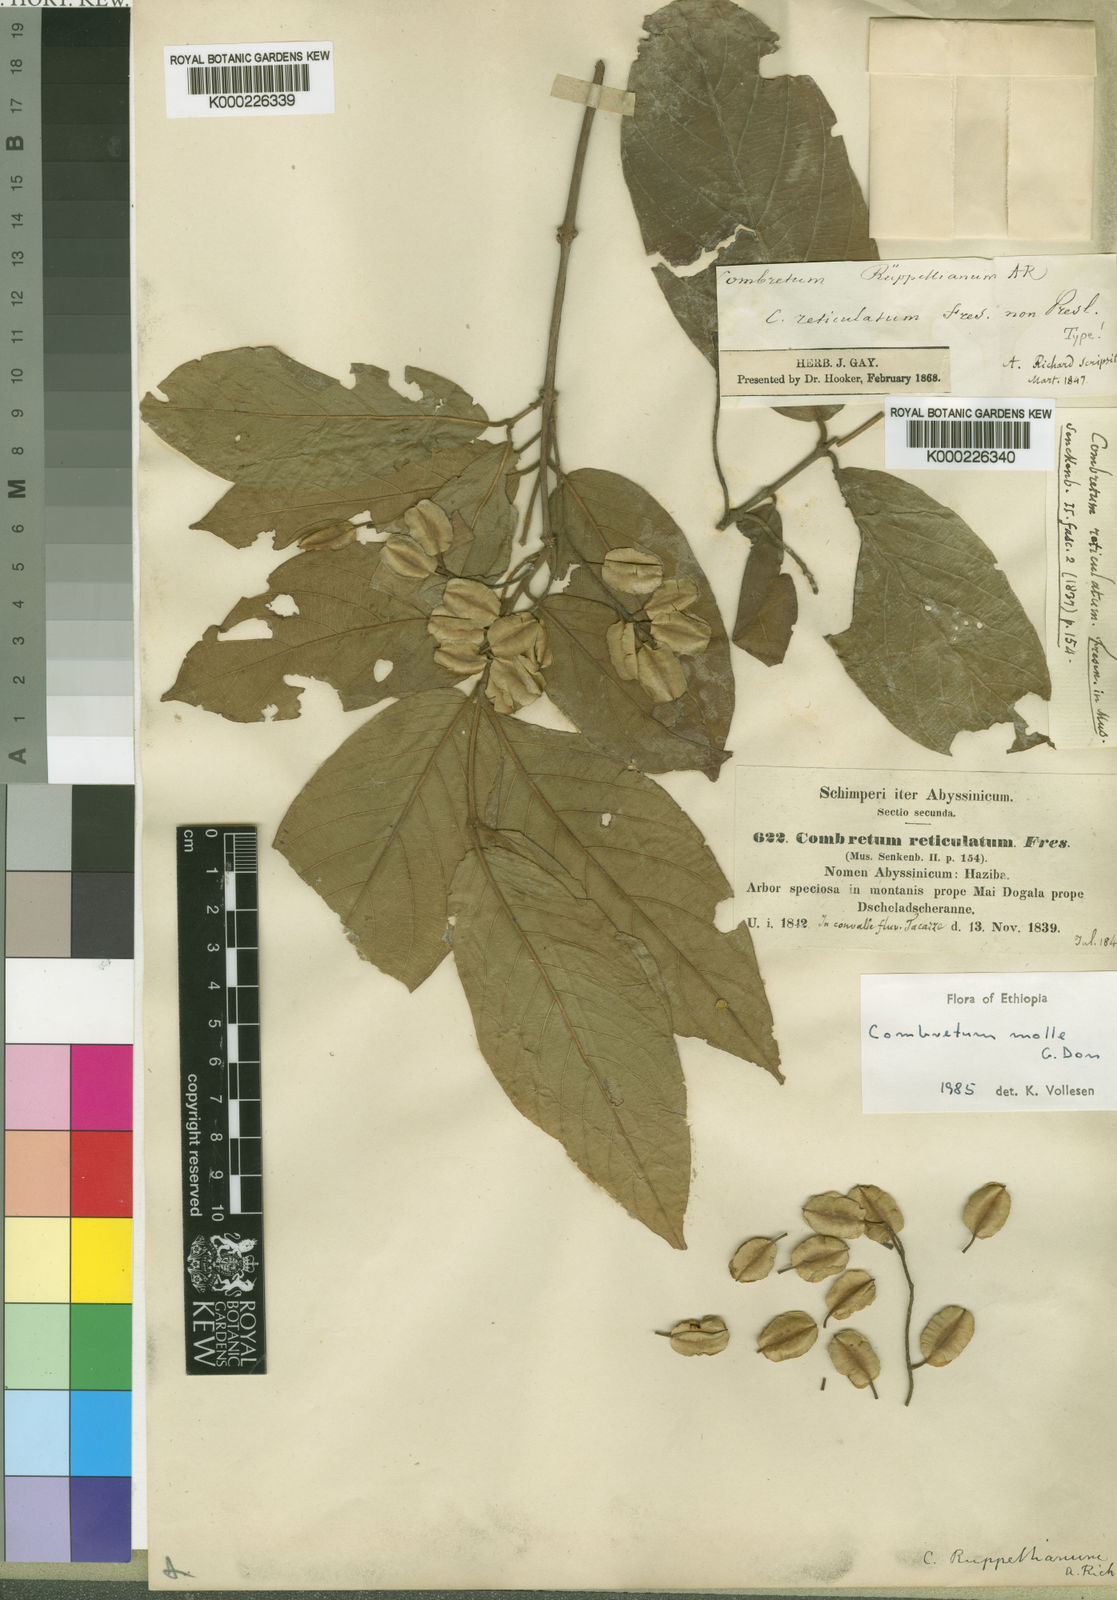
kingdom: Plantae
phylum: Tracheophyta
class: Magnoliopsida
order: Myrtales
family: Combretaceae
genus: Combretum
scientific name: Combretum molle
